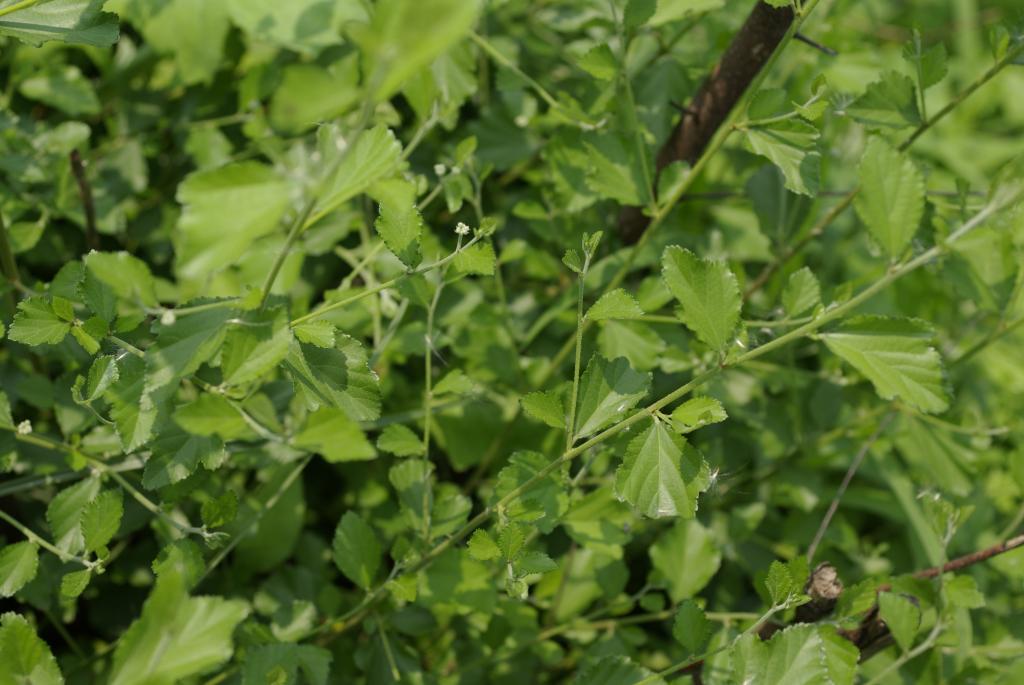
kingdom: Plantae
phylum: Tracheophyta
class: Magnoliopsida
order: Malvales
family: Malvaceae
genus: Grewia
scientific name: Grewia rhombifolia
